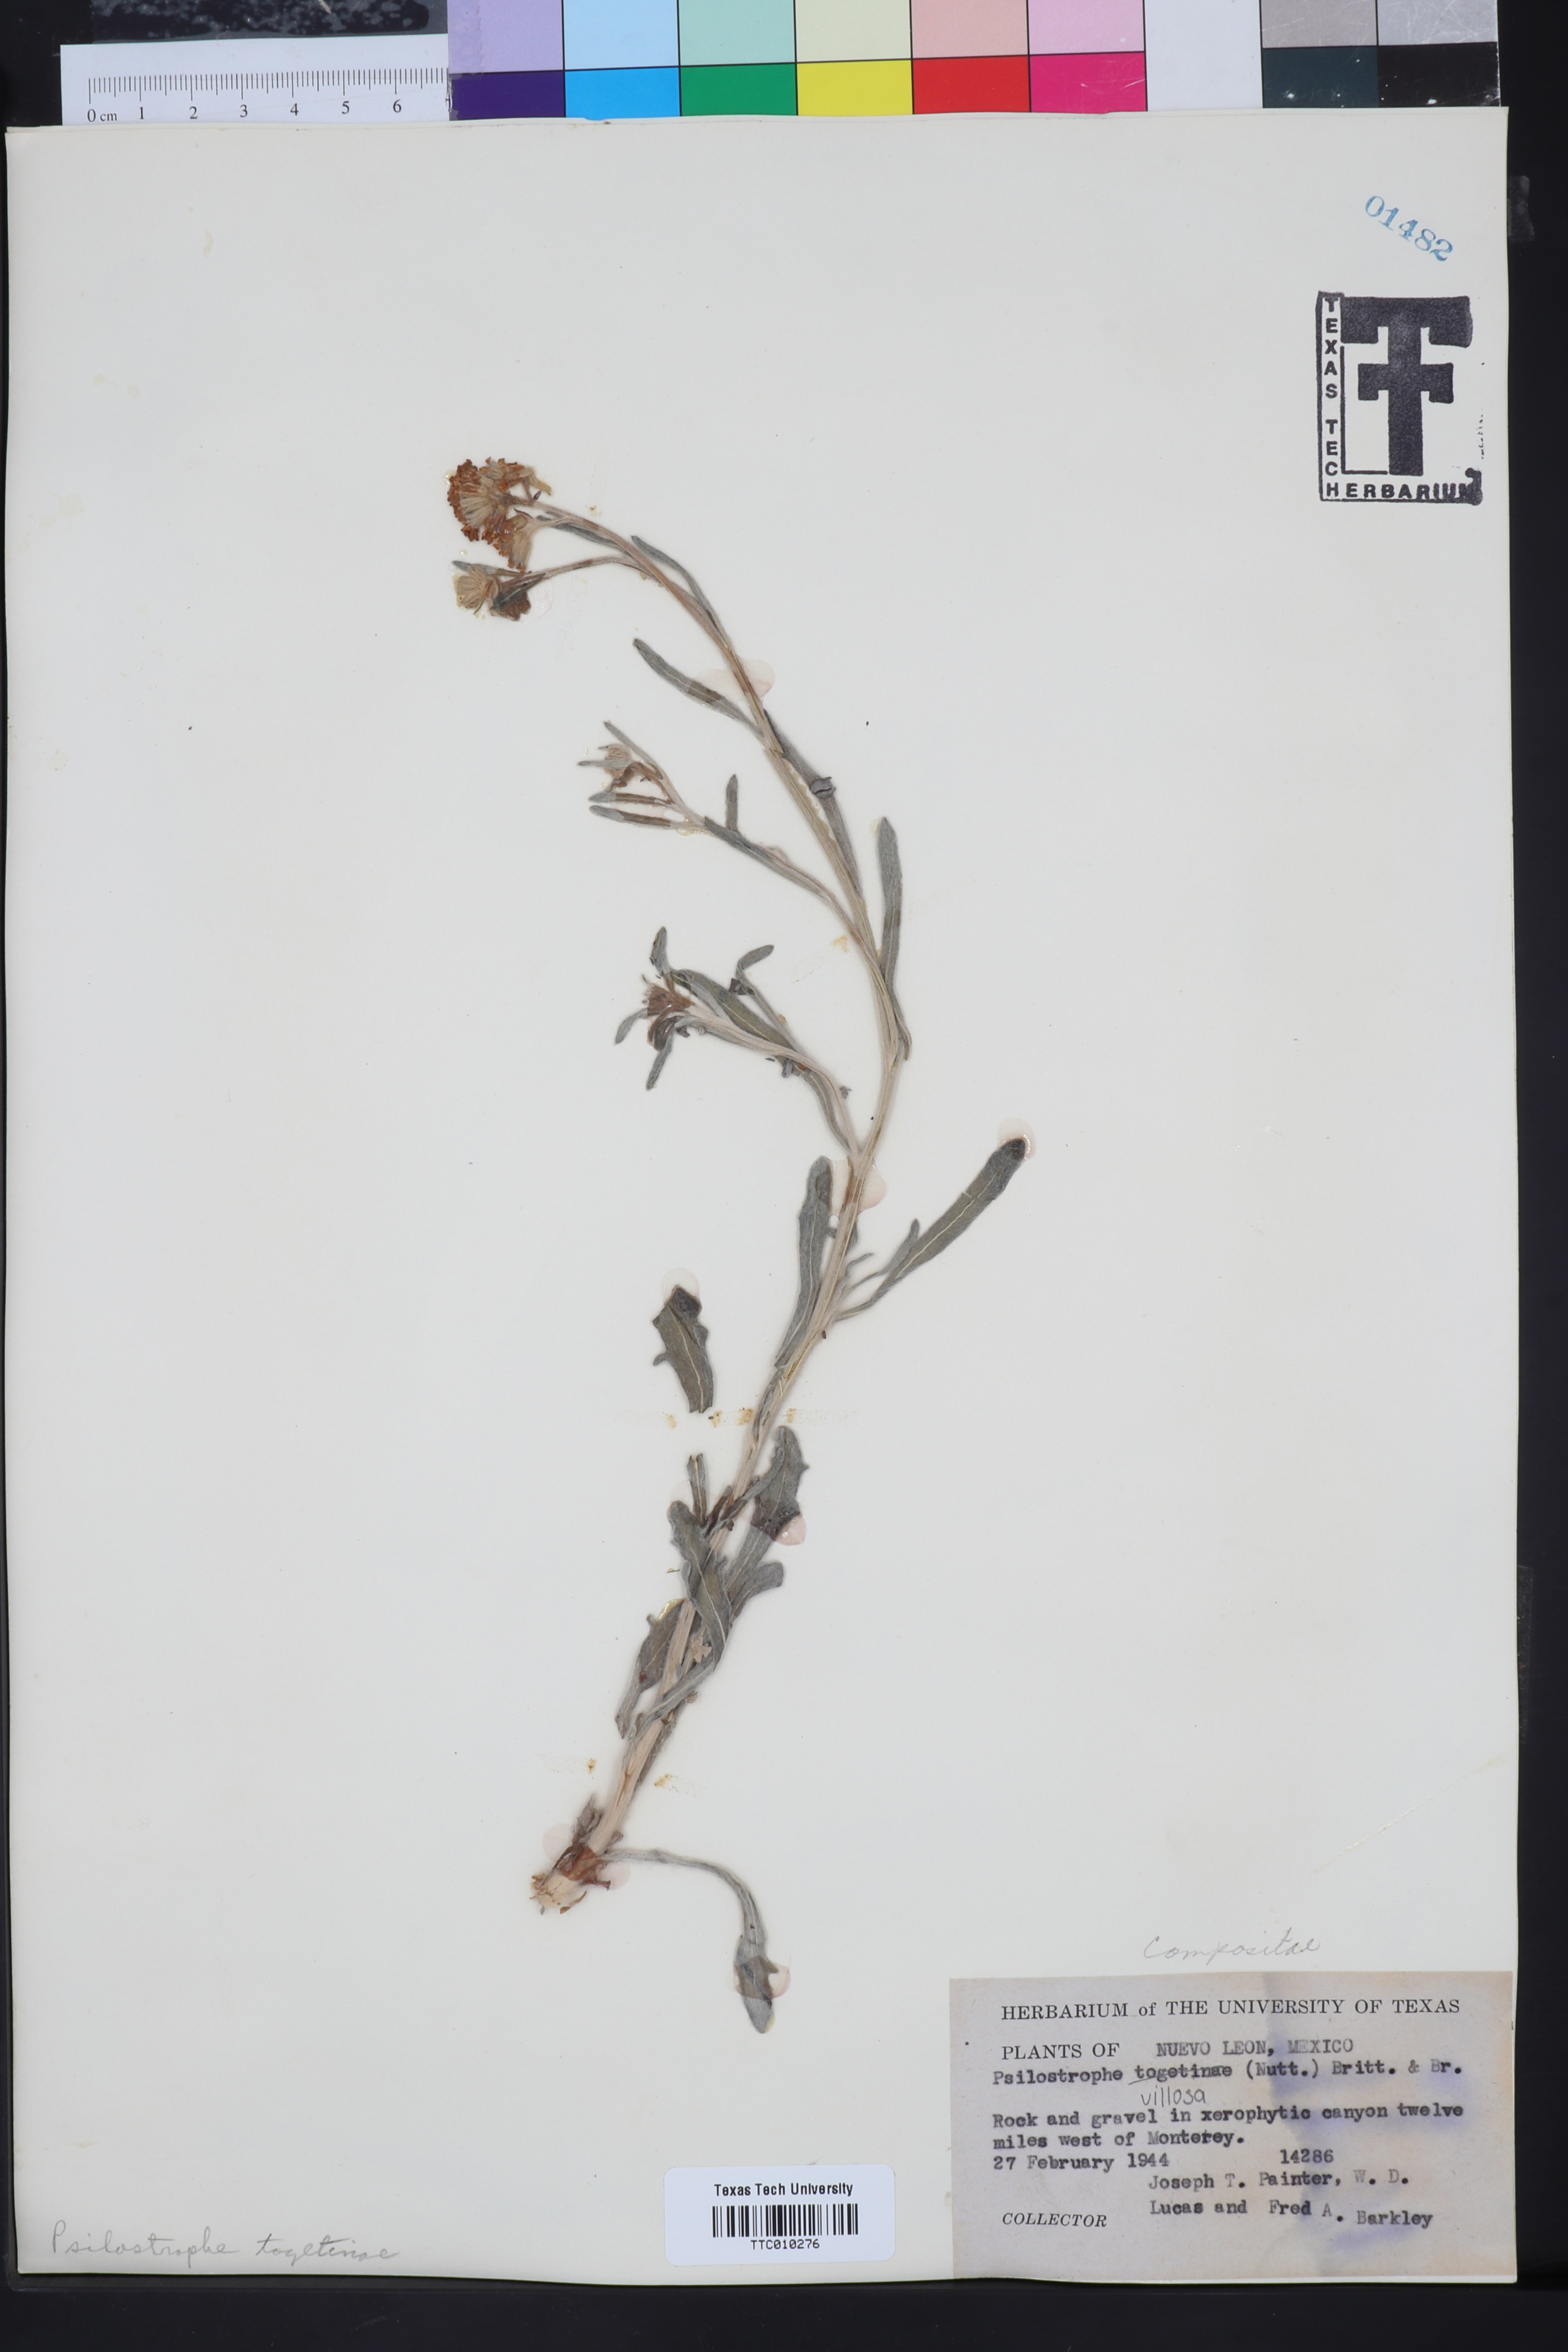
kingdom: Plantae
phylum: Tracheophyta
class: Magnoliopsida
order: Asterales
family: Asteraceae
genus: Psilostrophe
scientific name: Psilostrophe tagetina
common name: Marigold paper-flower
